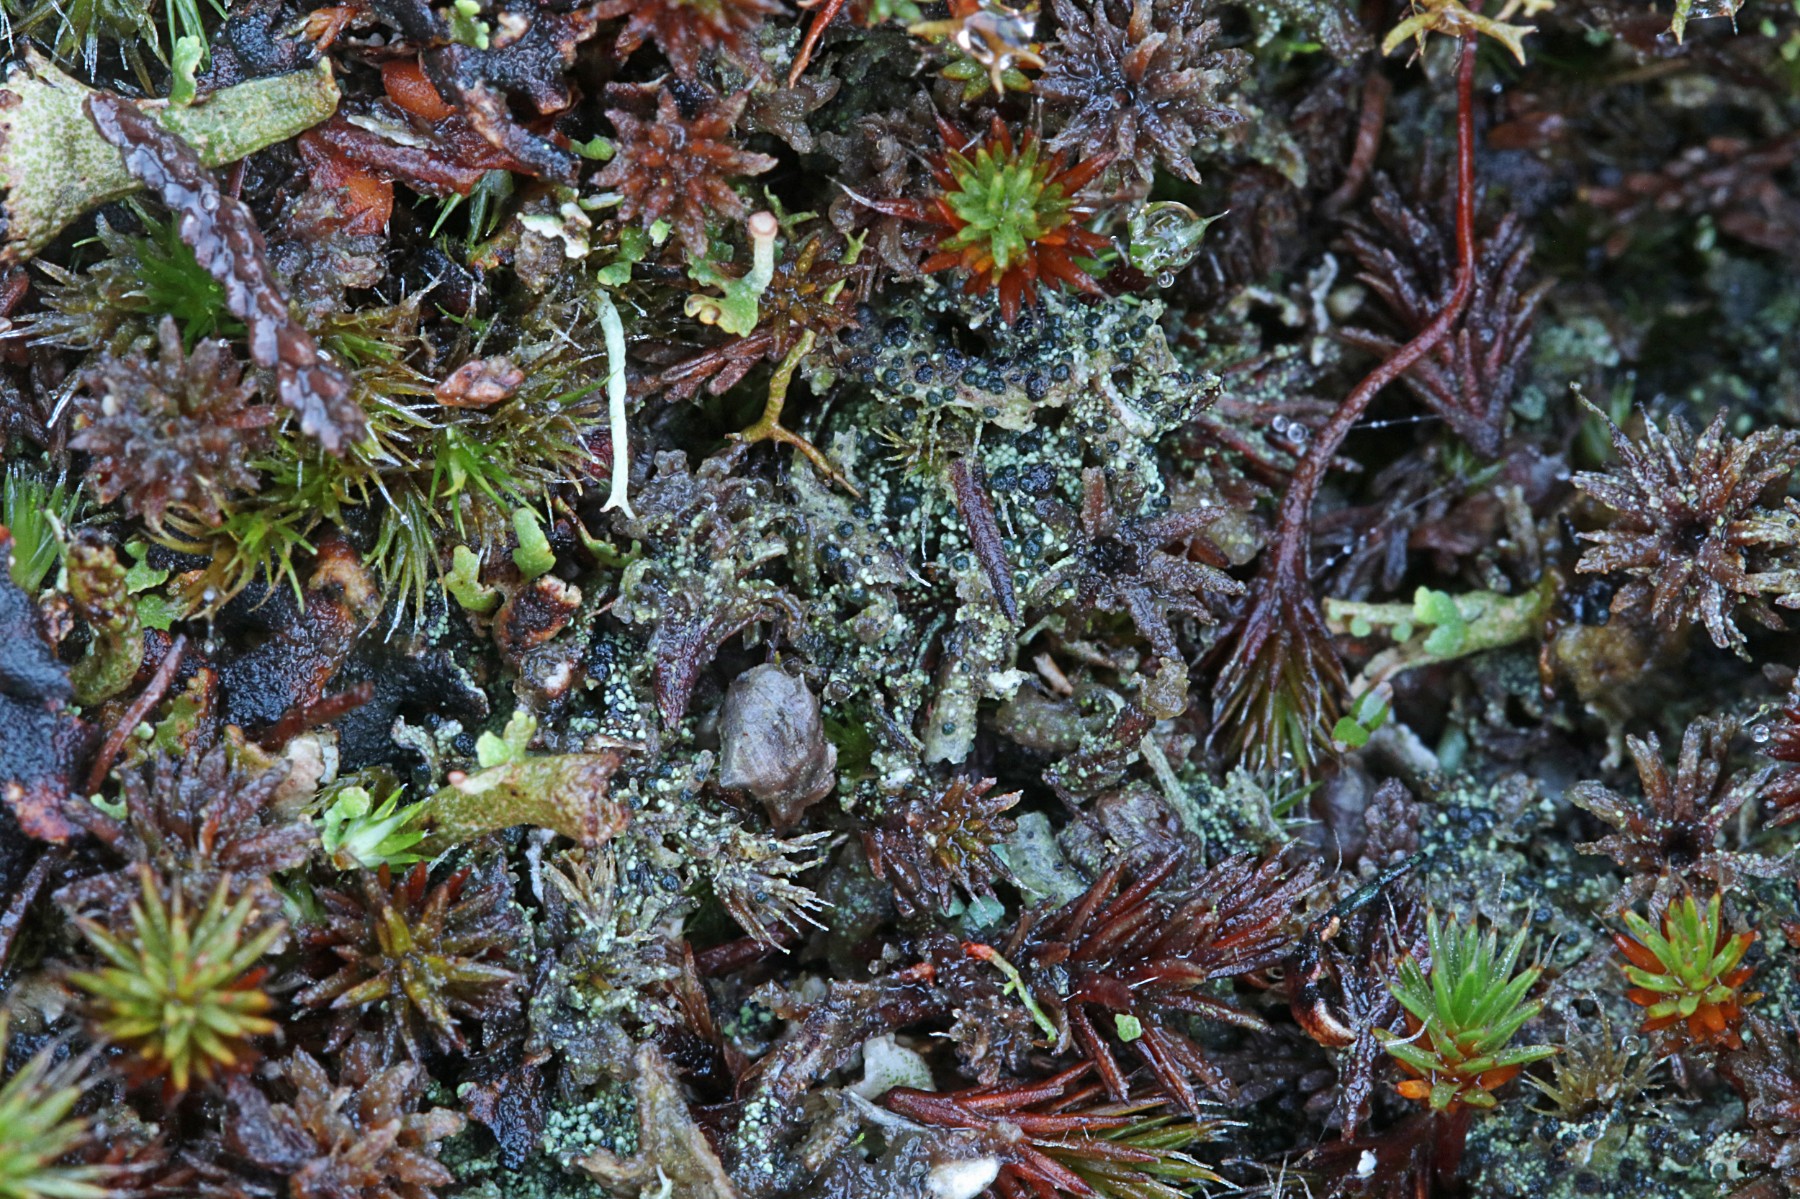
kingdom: Fungi
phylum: Ascomycota
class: Lecanoromycetes
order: Lecanorales
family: Byssolomataceae
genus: Micarea
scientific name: Micarea lignaria
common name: tørve-knaplav
